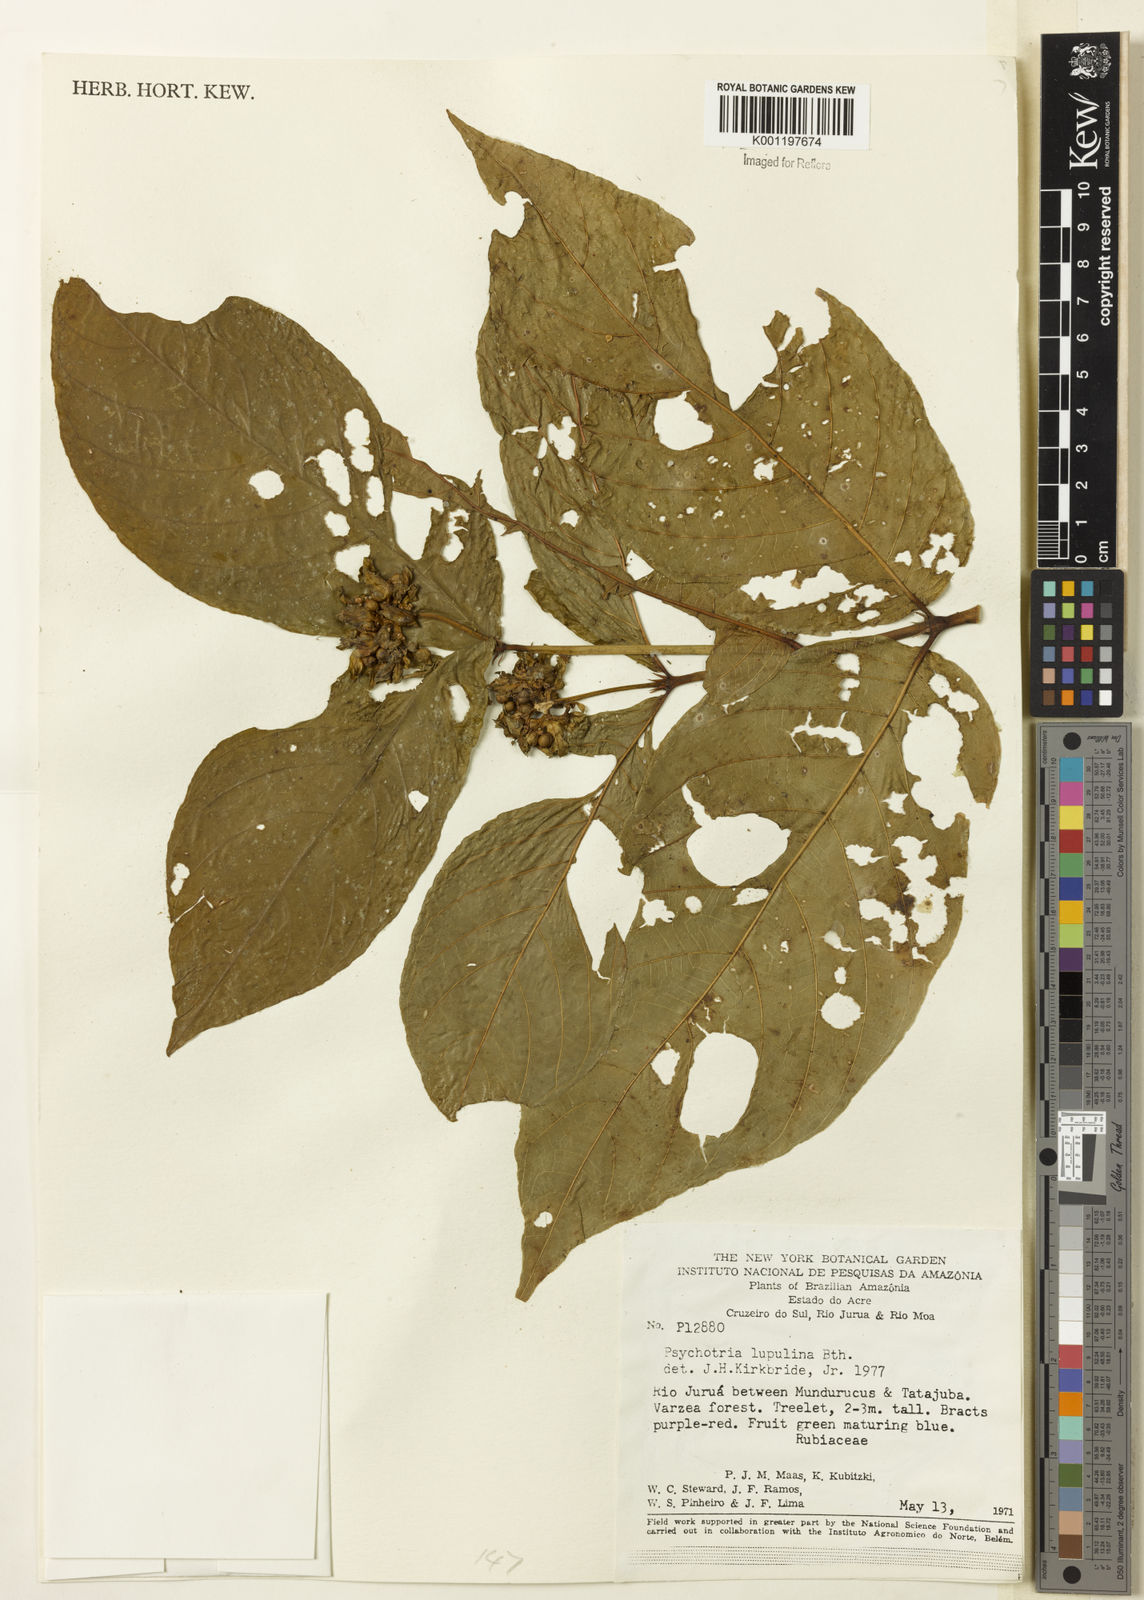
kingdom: Plantae
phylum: Tracheophyta
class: Magnoliopsida
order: Gentianales
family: Rubiaceae
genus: Palicourea
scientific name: Palicourea justiciifolia
